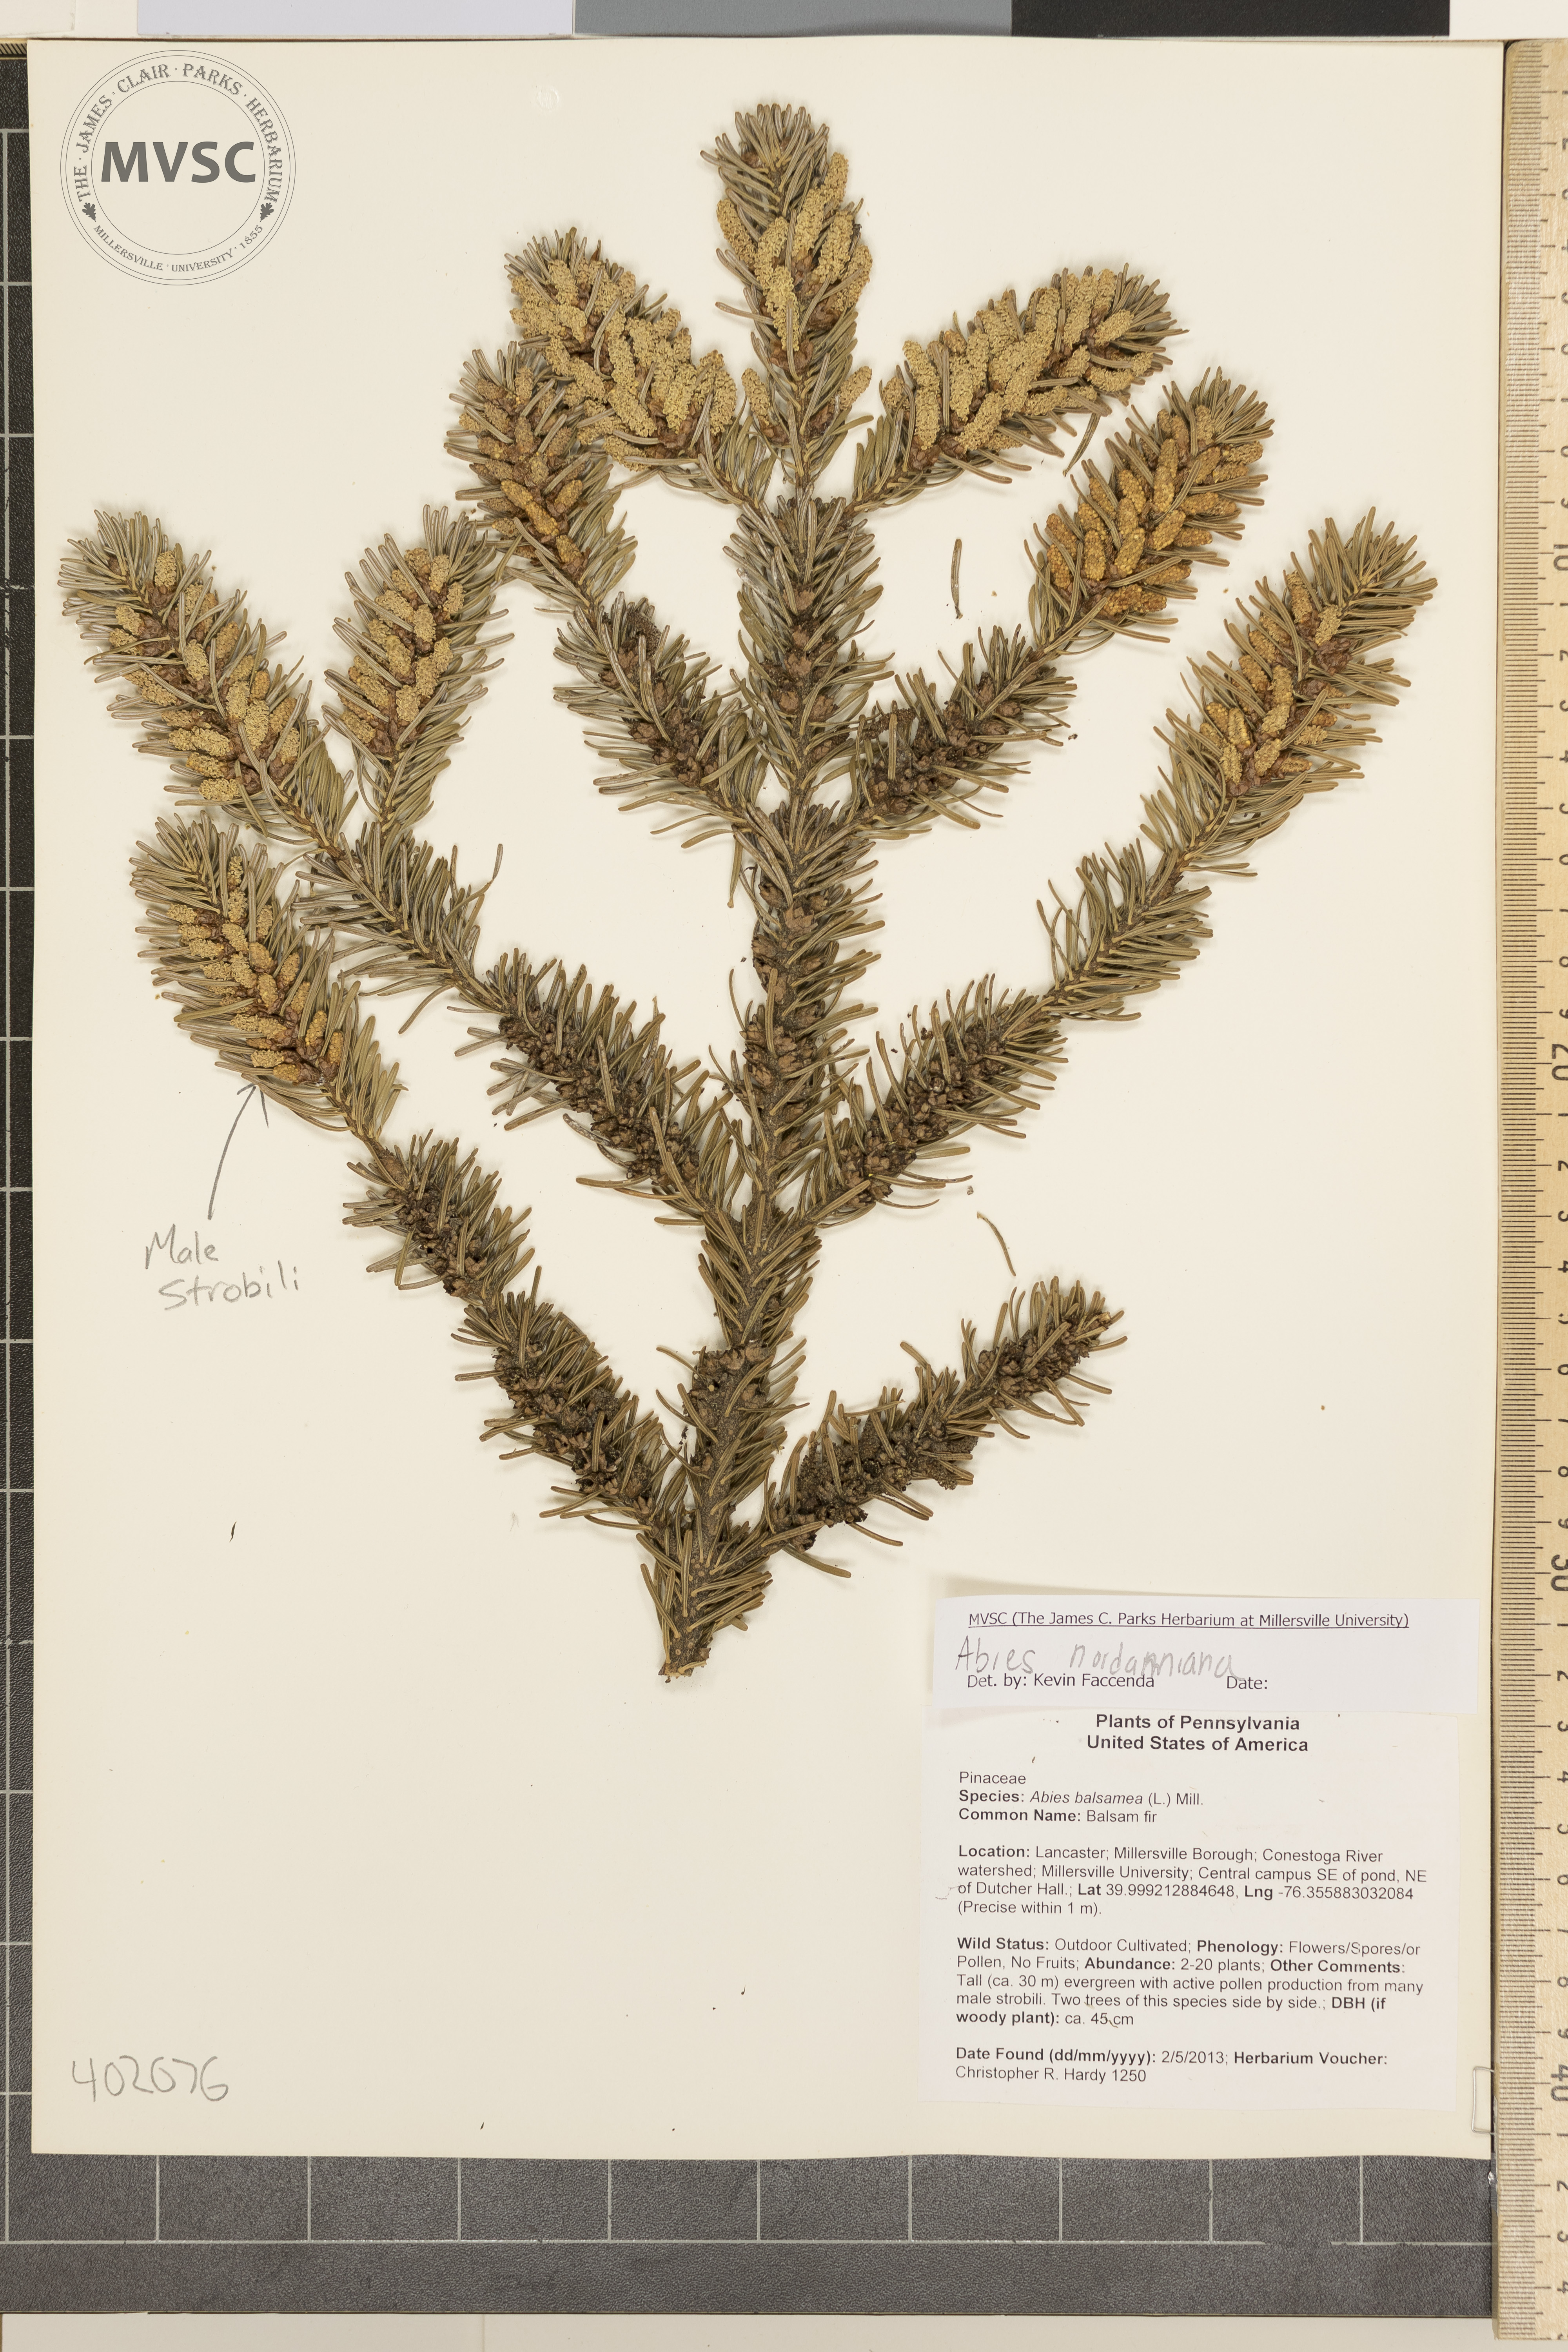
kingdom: Plantae
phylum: Tracheophyta
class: Pinopsida
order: Pinales
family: Pinaceae
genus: Abies
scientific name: Abies nordmanniana
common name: Nordmann fir
